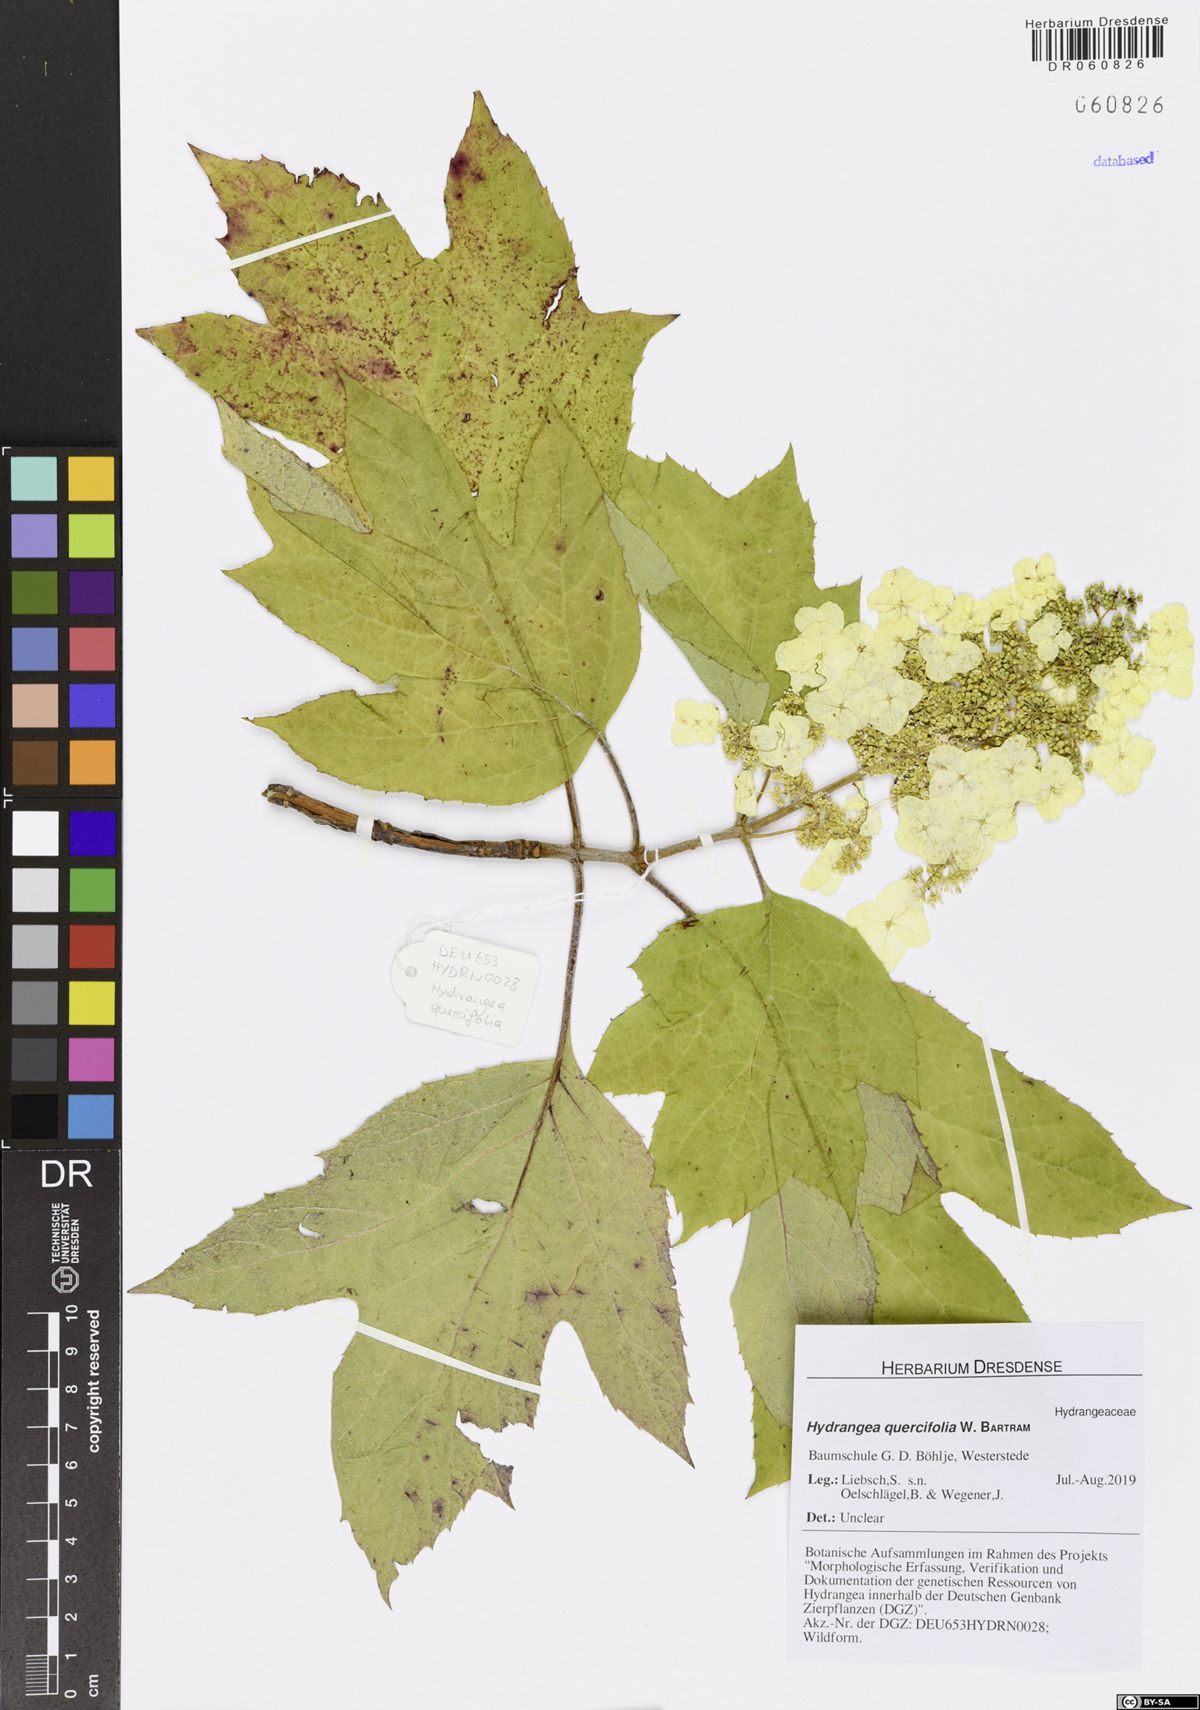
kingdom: Plantae
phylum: Tracheophyta
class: Magnoliopsida
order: Cornales
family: Hydrangeaceae
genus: Hydrangea
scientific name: Hydrangea quercifolia
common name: Oak-leaf hydrangea
